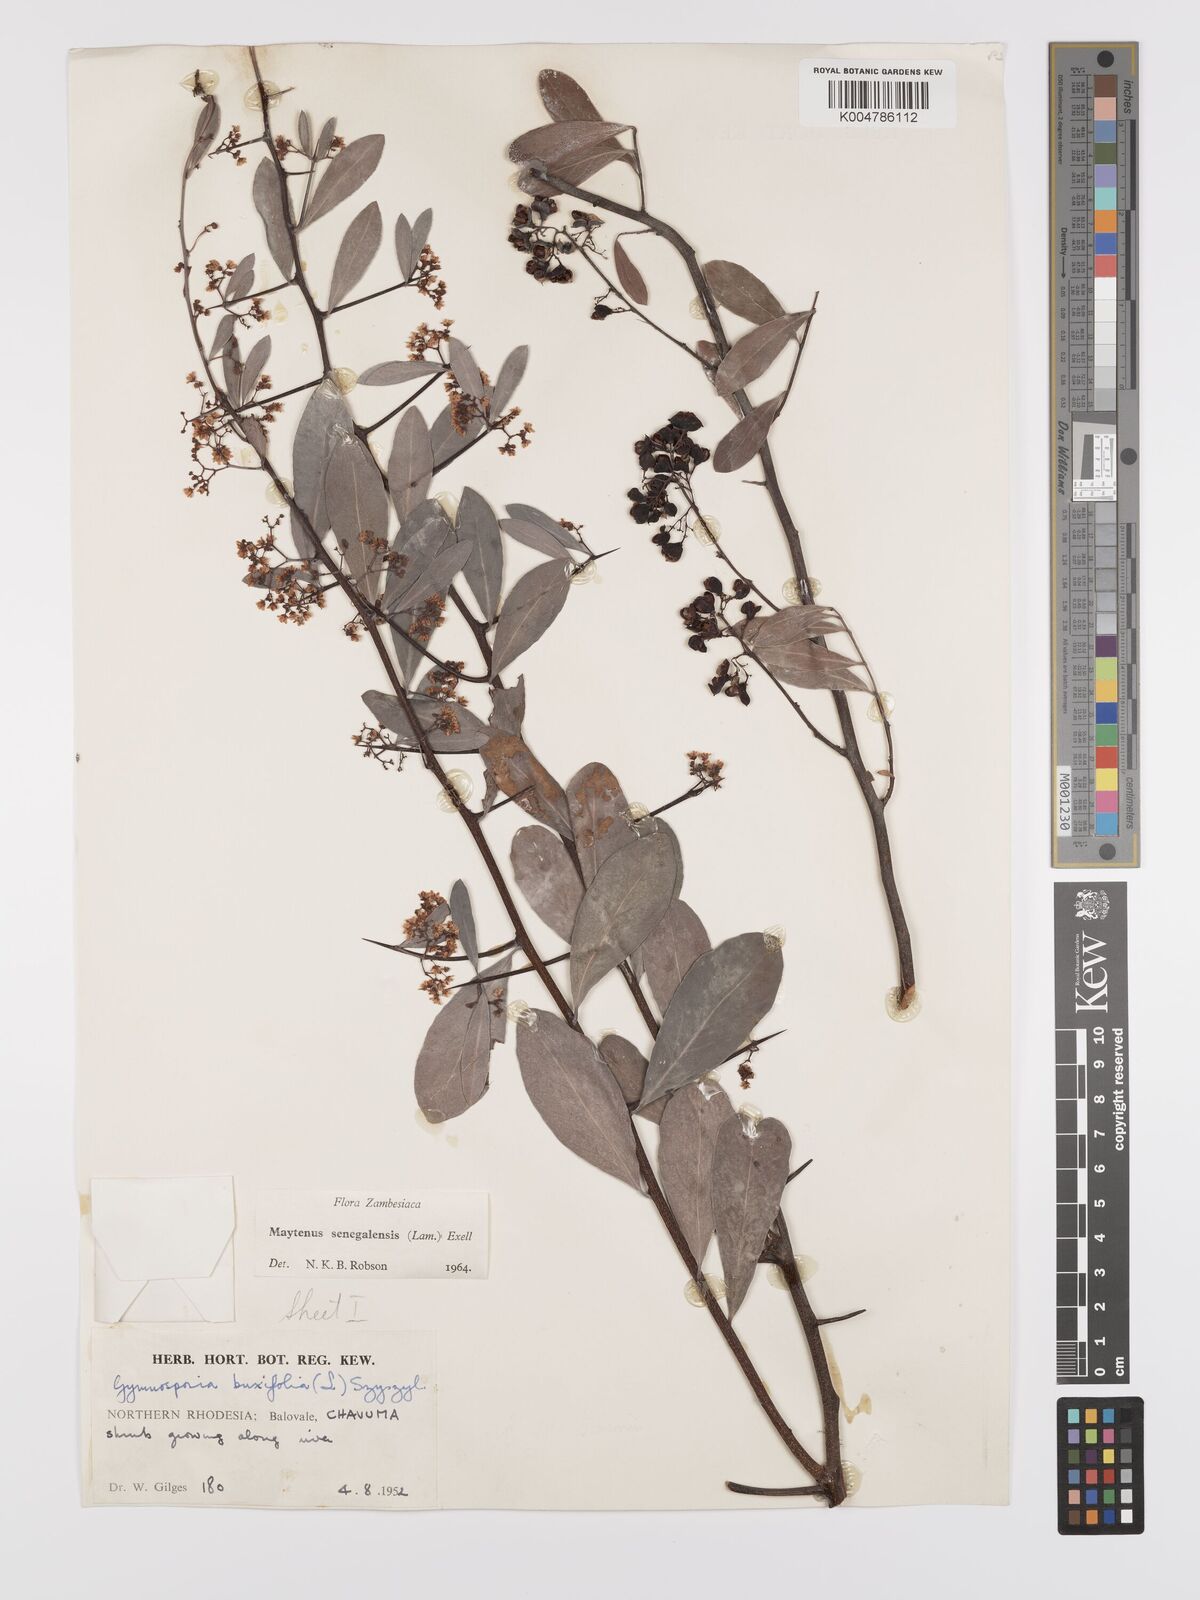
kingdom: Plantae
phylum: Tracheophyta
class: Magnoliopsida
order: Celastrales
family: Celastraceae
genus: Gymnosporia
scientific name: Gymnosporia senegalensis
